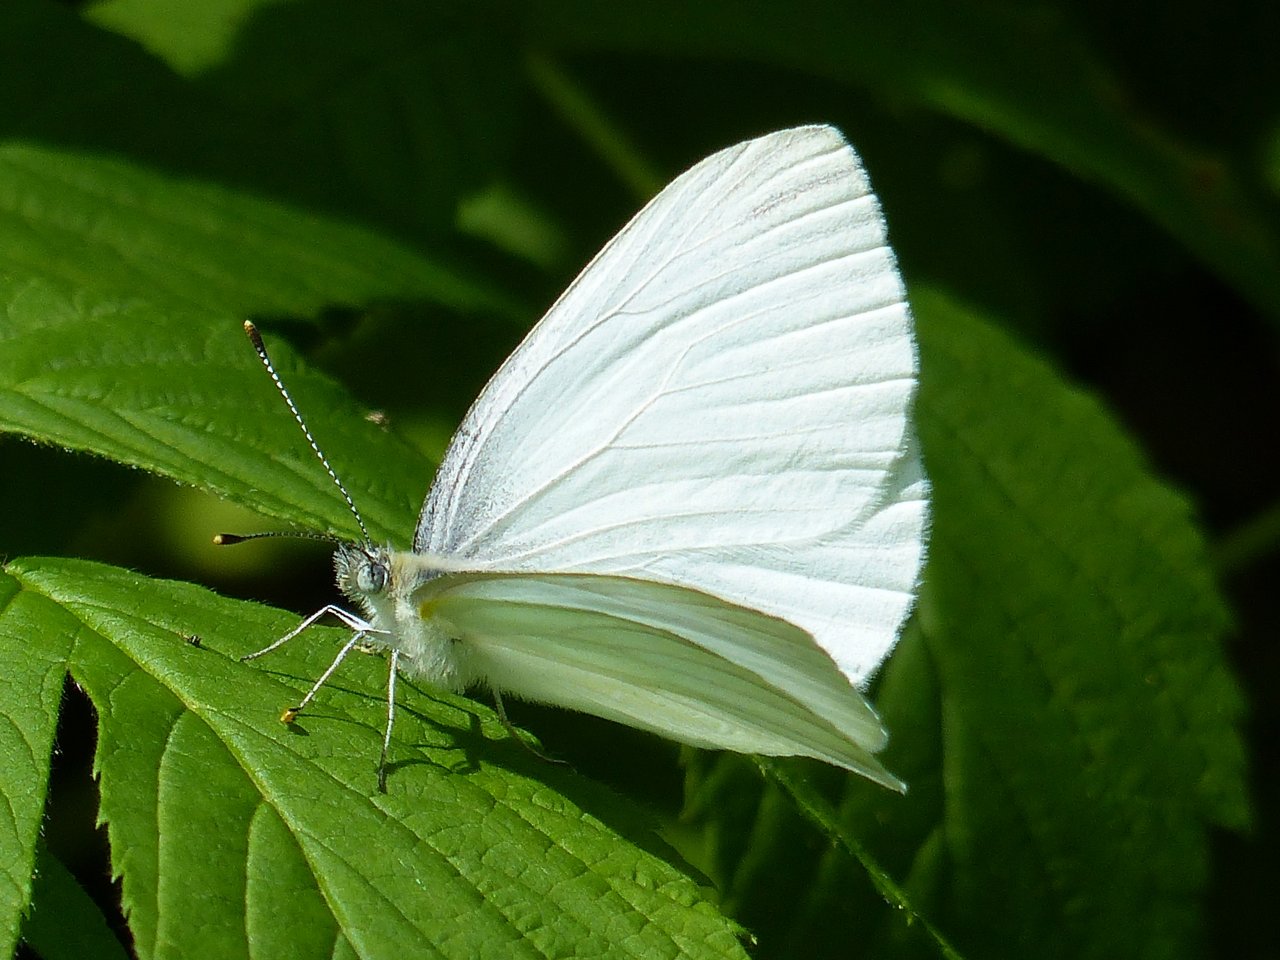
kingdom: Animalia
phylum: Arthropoda
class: Insecta
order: Lepidoptera
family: Pieridae
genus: Pieris
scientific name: Pieris oleracea
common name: Mustard White
